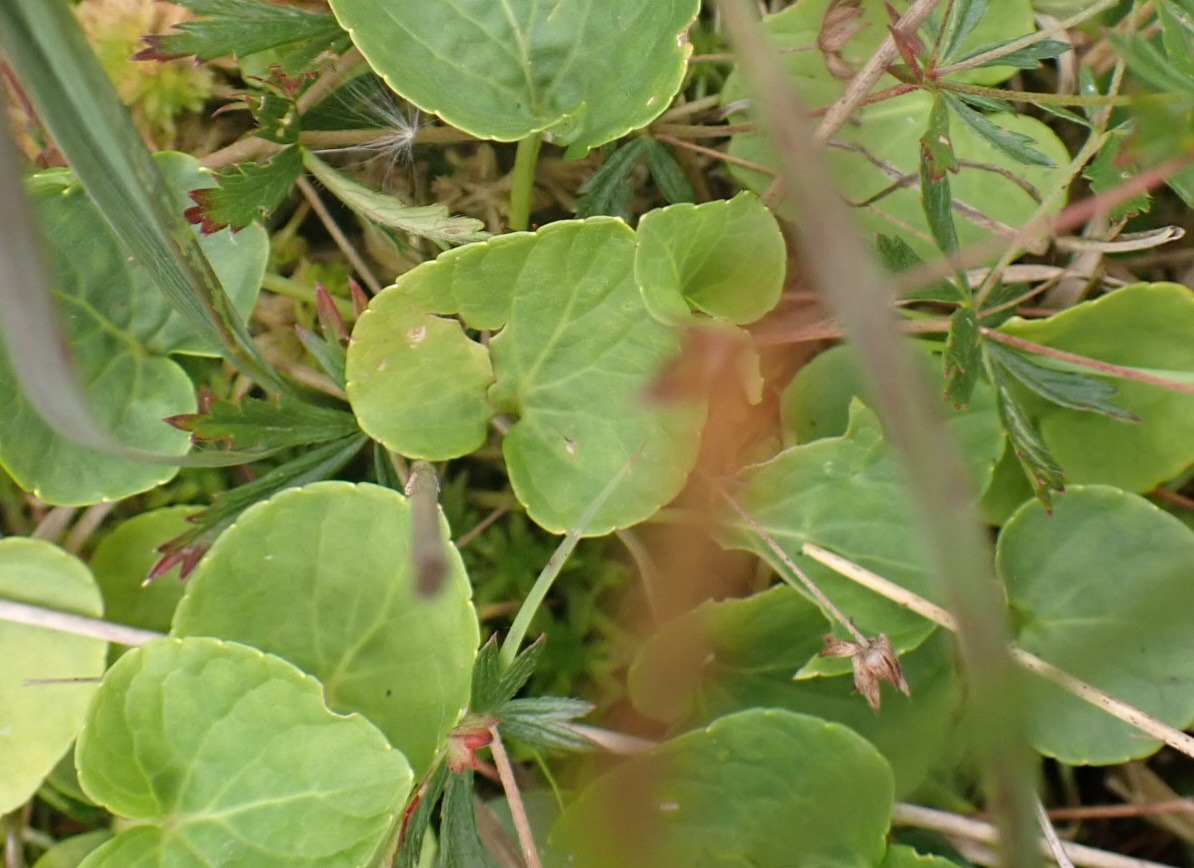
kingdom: Plantae
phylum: Tracheophyta
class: Magnoliopsida
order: Malpighiales
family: Violaceae
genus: Viola
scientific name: Viola palustris
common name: Eng-viol
